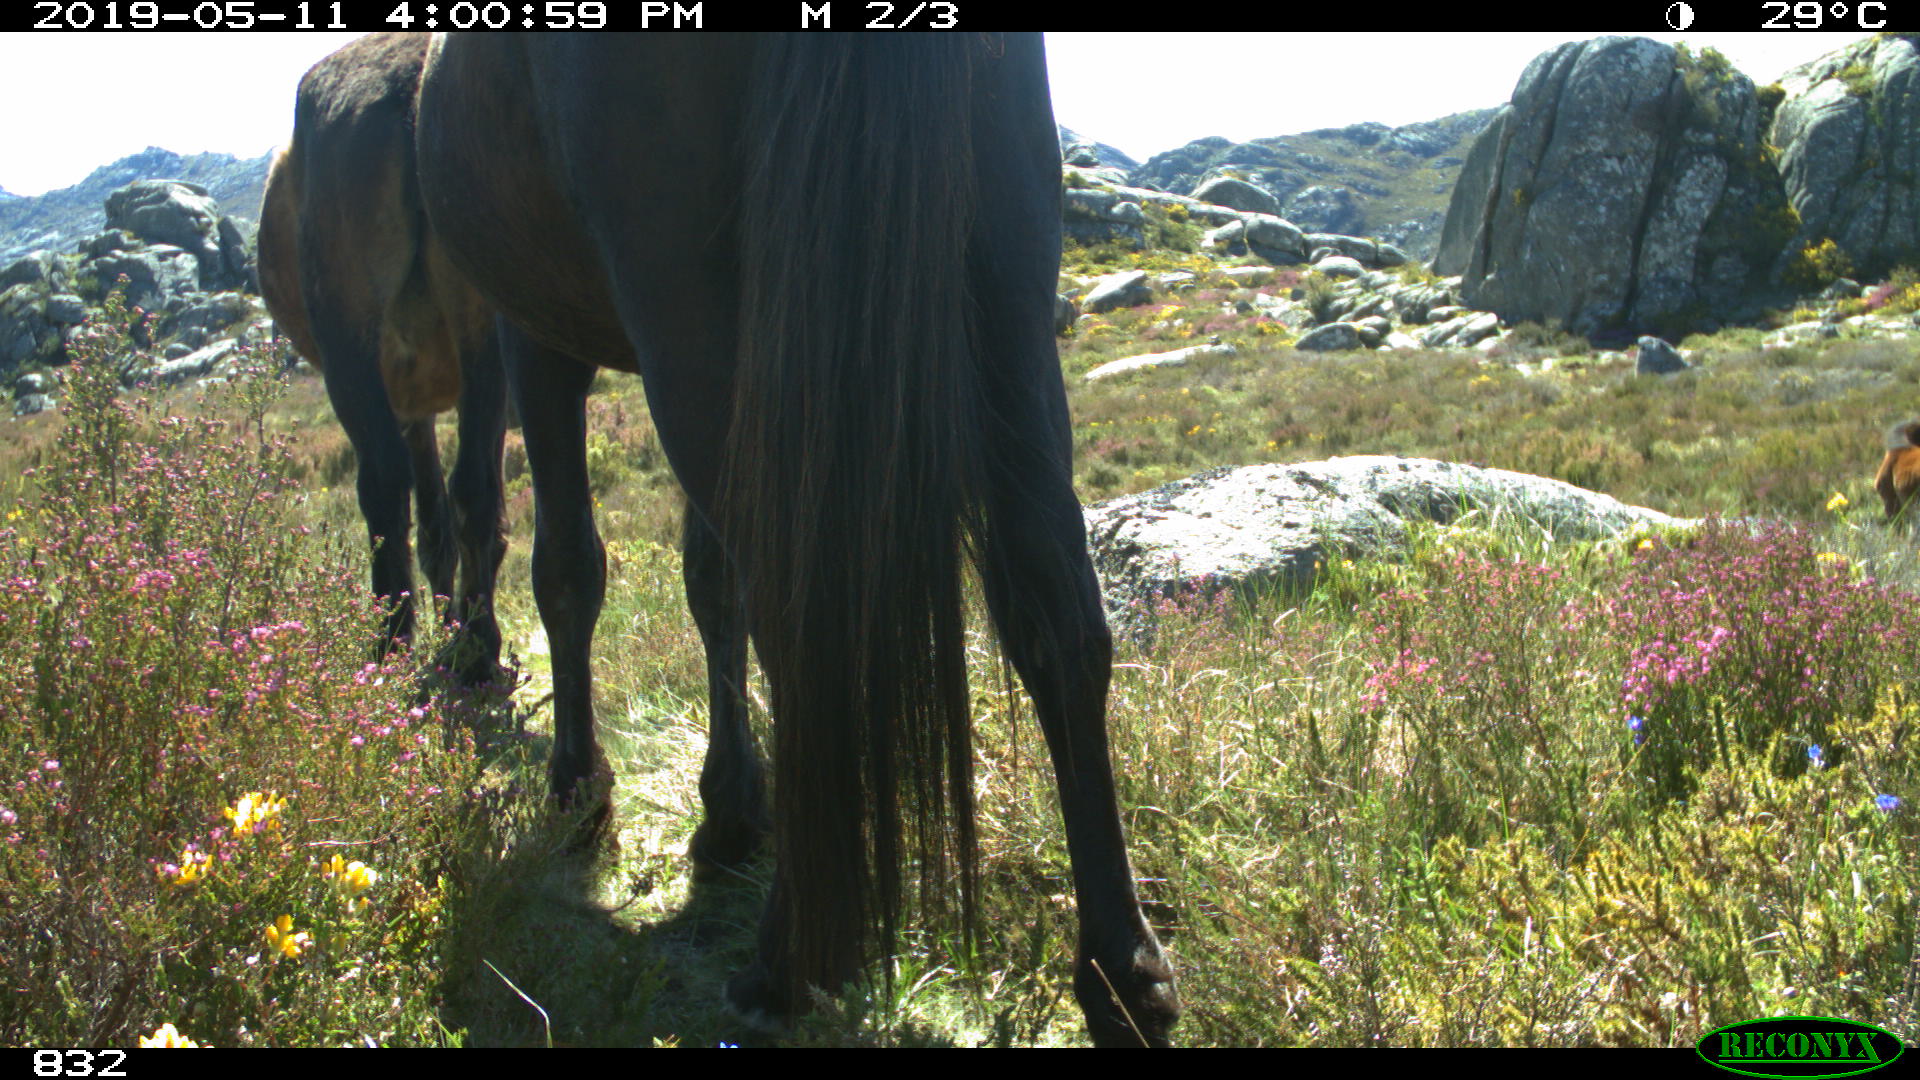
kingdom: Animalia
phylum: Chordata
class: Mammalia
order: Perissodactyla
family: Equidae
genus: Equus
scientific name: Equus caballus
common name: Horse
